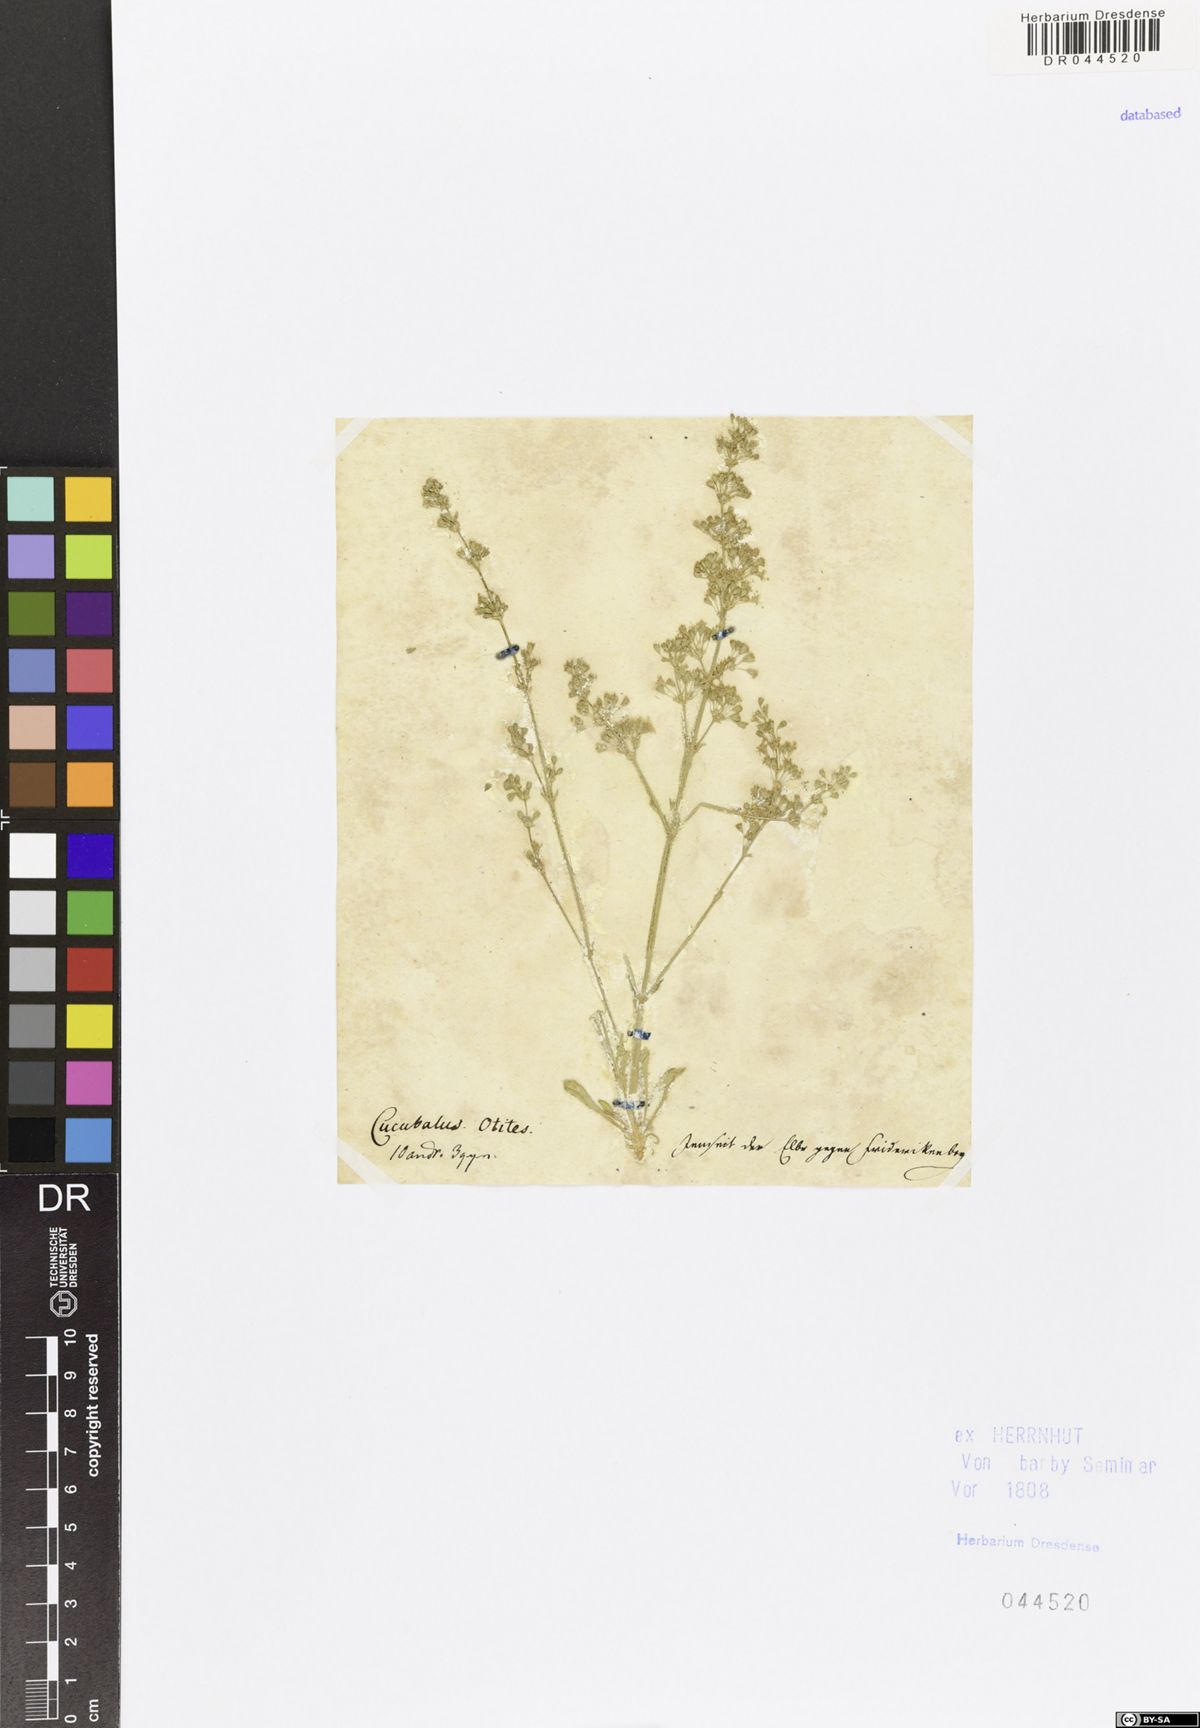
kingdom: Plantae
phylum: Tracheophyta
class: Magnoliopsida
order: Caryophyllales
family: Caryophyllaceae
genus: Silene
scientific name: Silene otites
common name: Spanish catchfly
